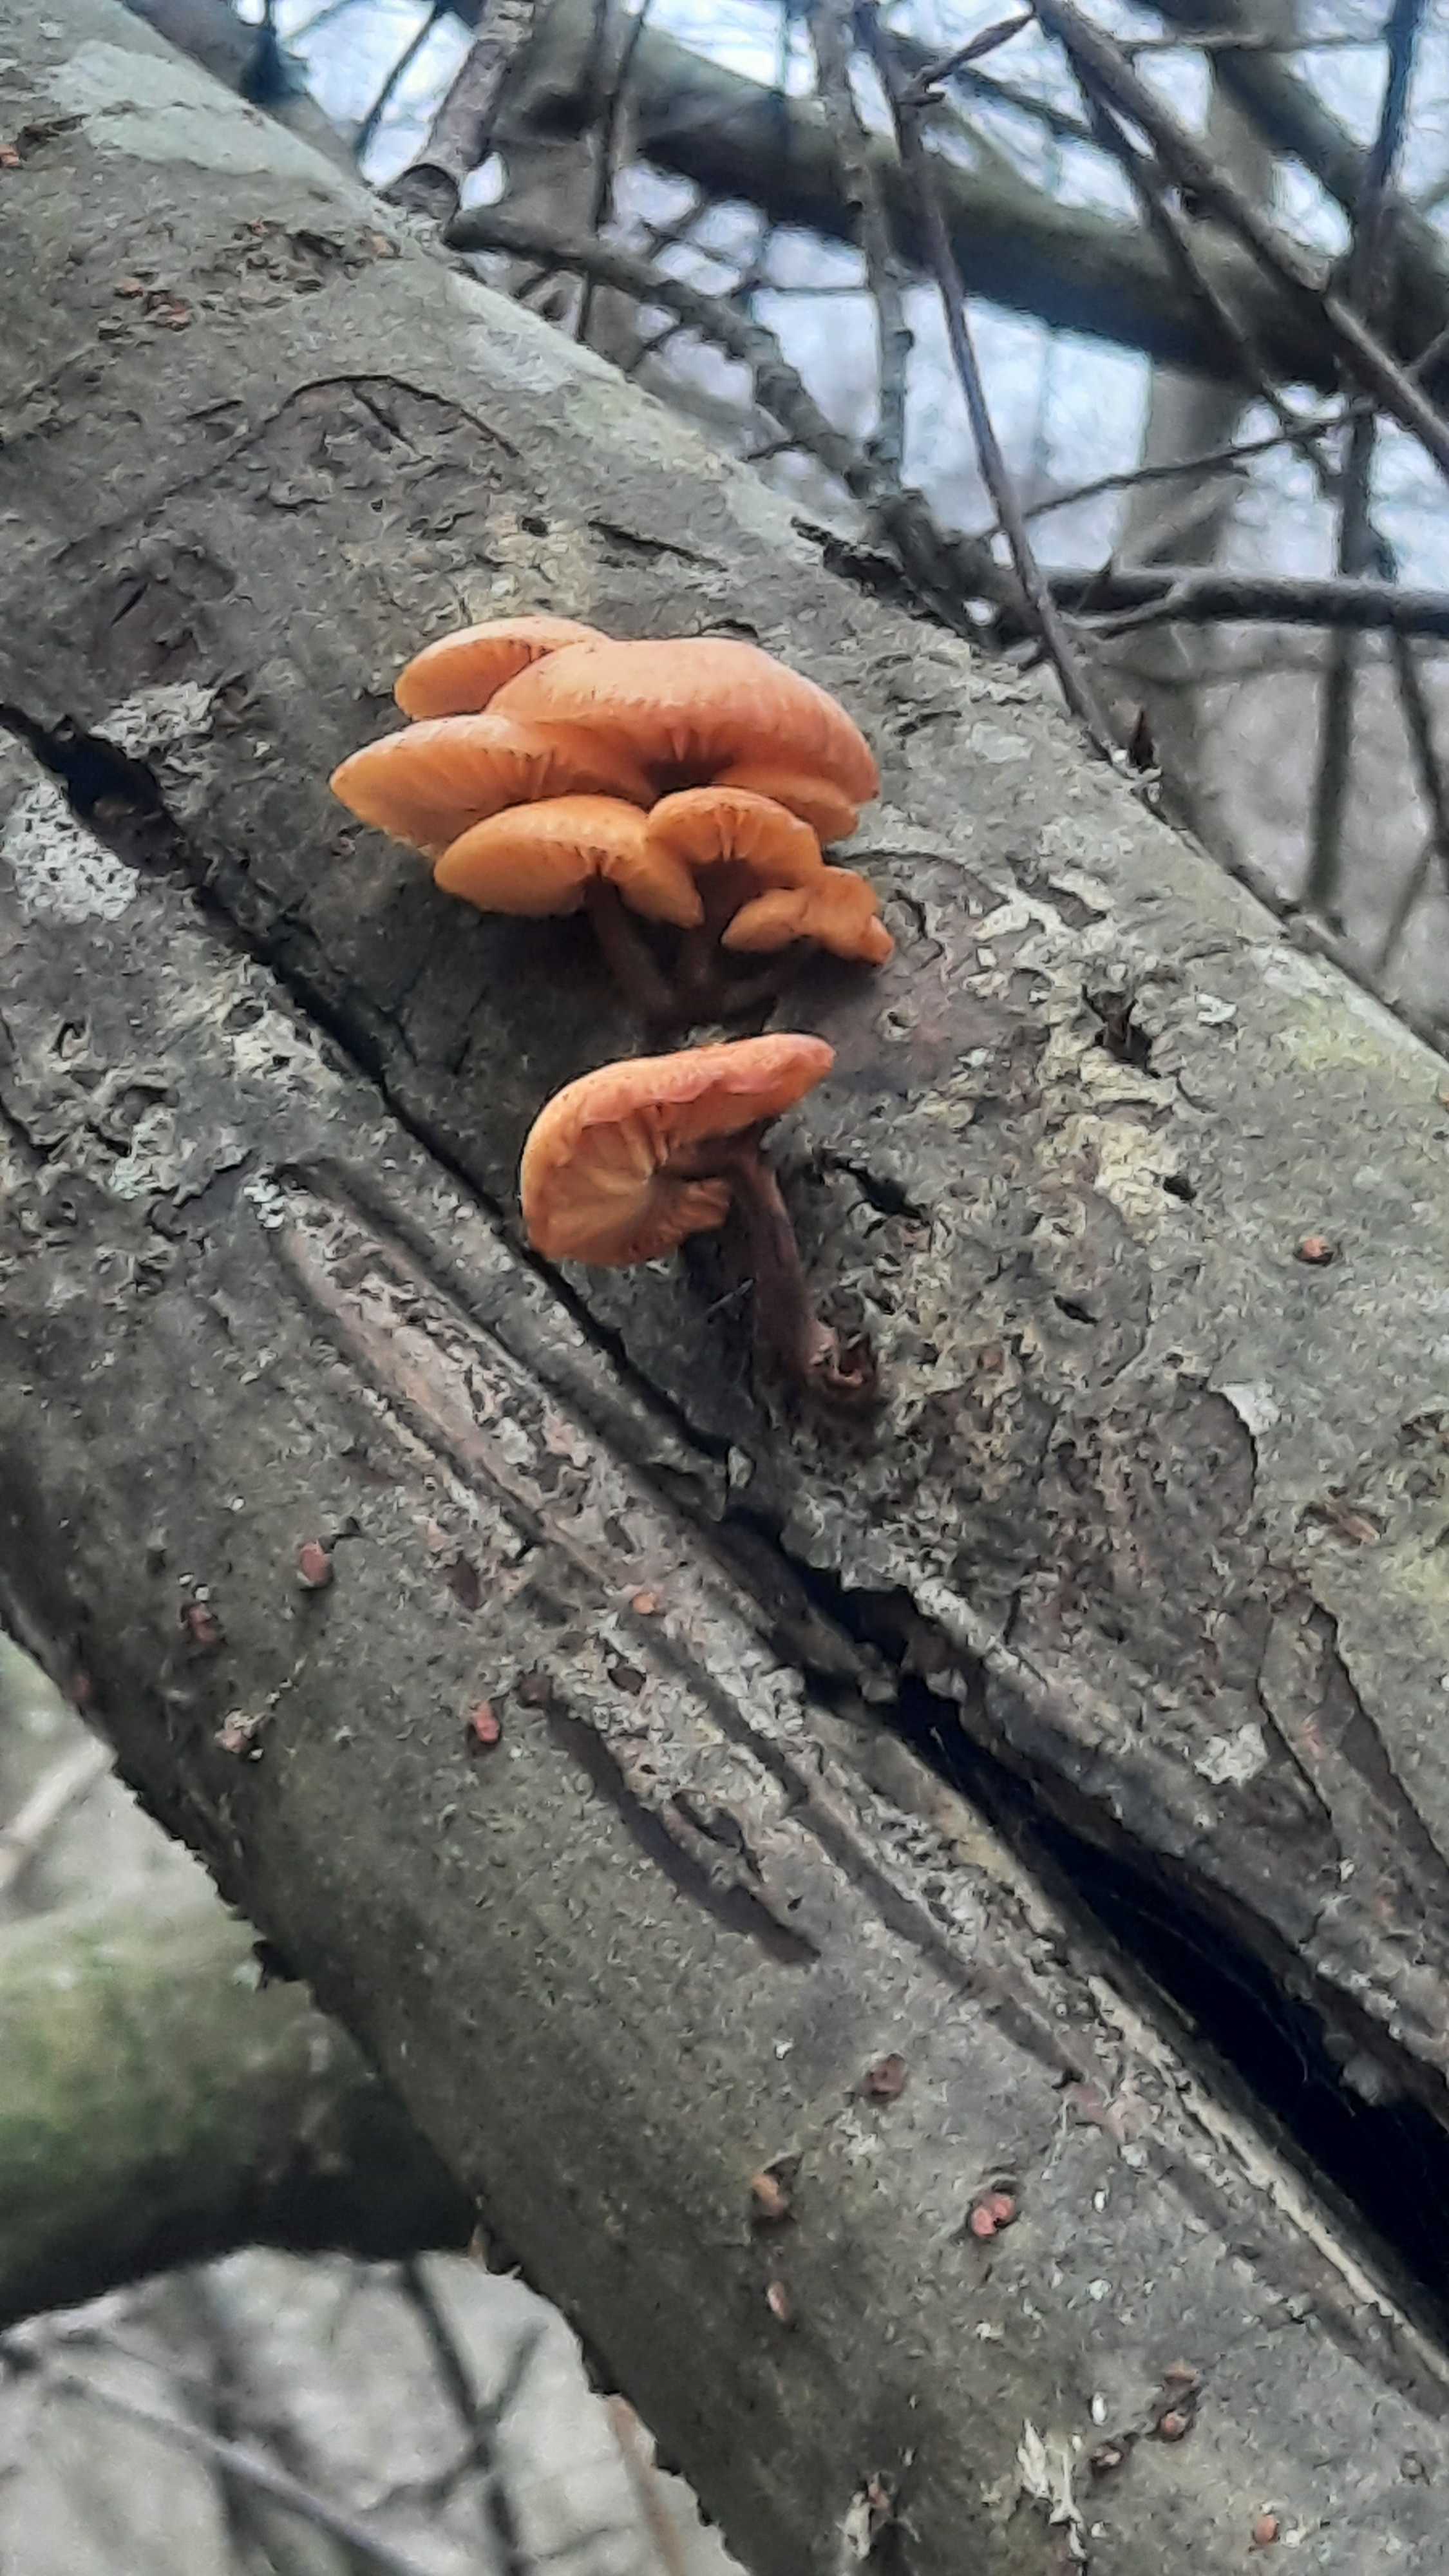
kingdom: Fungi
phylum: Basidiomycota
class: Agaricomycetes
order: Agaricales
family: Physalacriaceae
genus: Flammulina
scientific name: Flammulina
